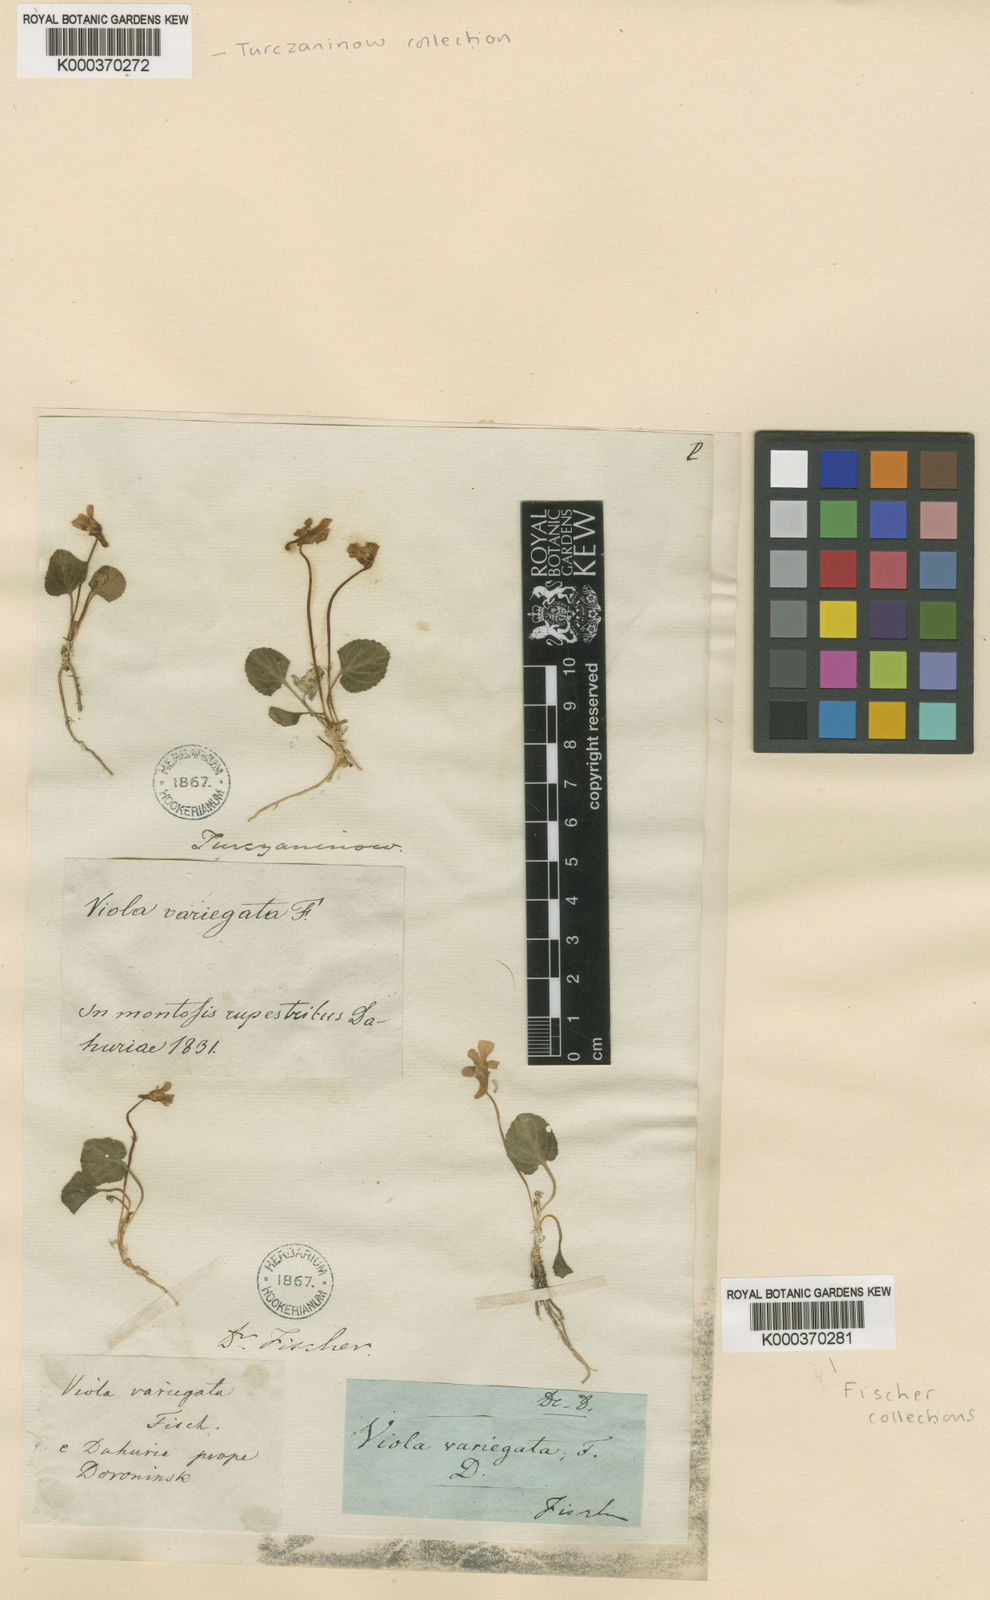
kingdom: Plantae
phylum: Tracheophyta
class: Magnoliopsida
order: Malpighiales
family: Violaceae
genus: Viola
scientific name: Viola variegata
